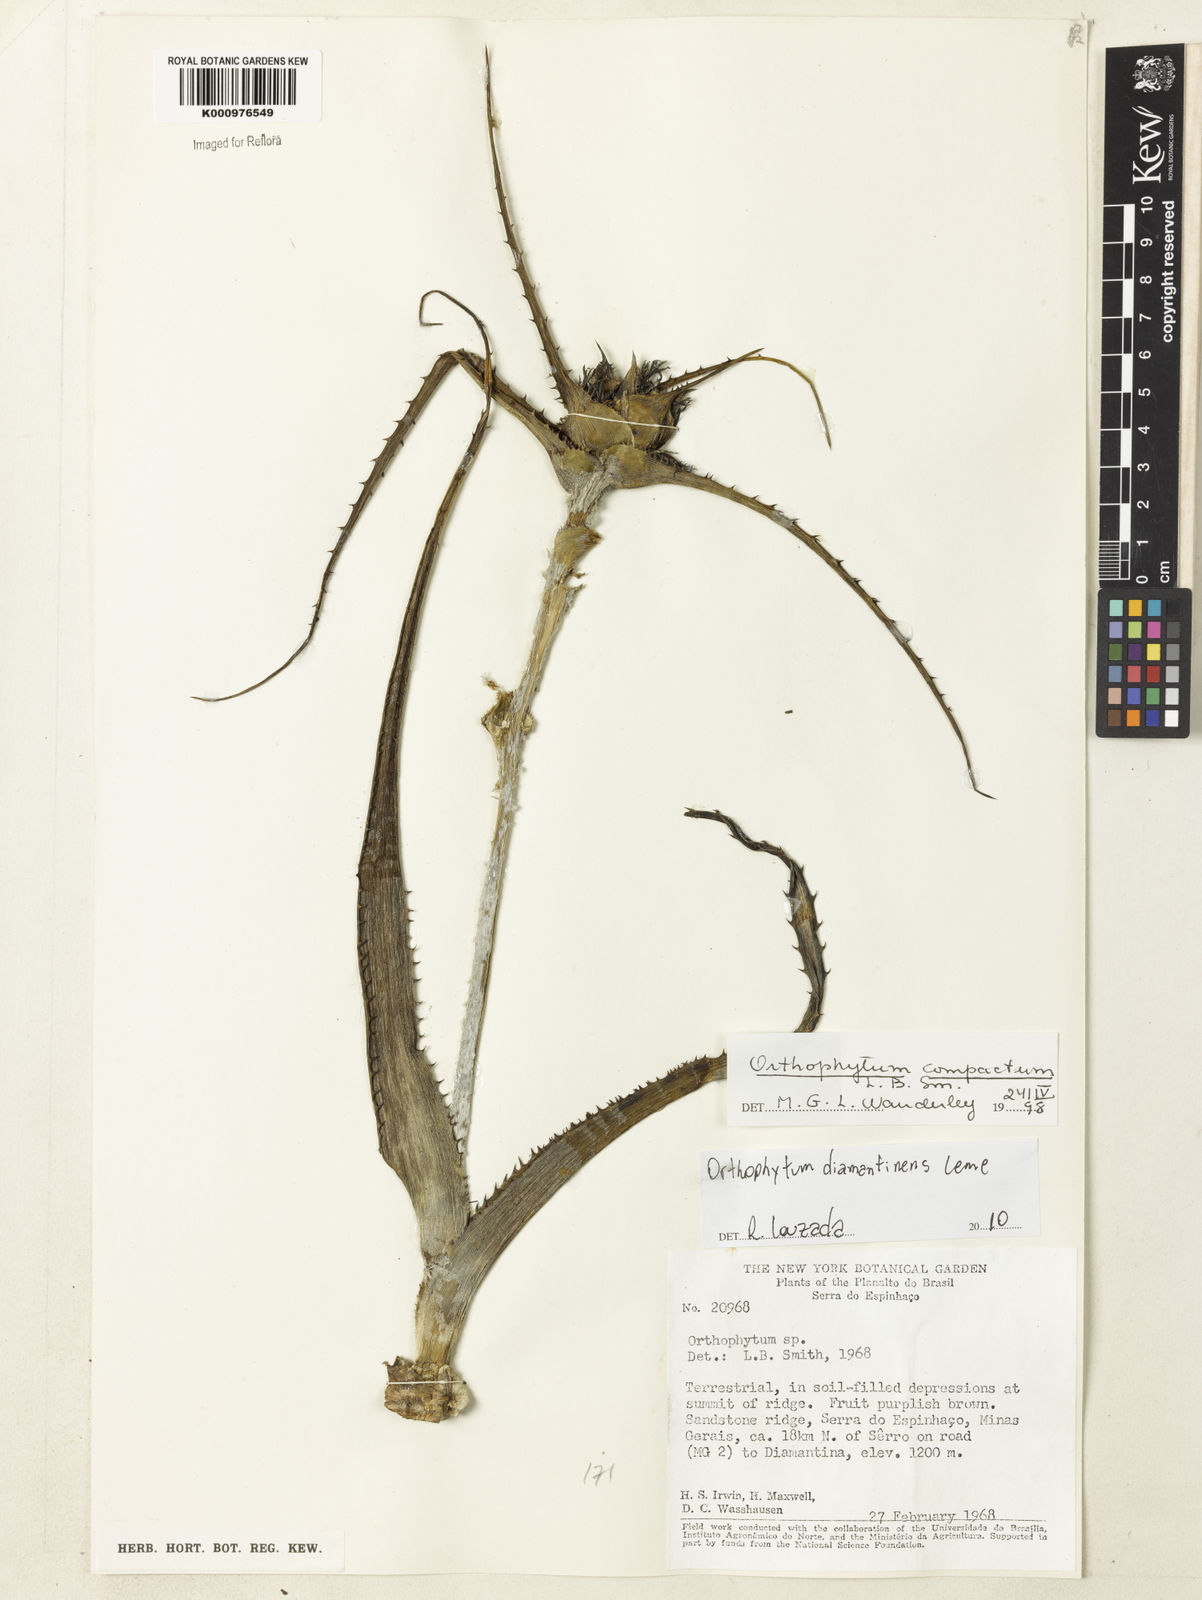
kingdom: Plantae
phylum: Tracheophyta
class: Liliopsida
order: Poales
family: Bromeliaceae
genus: Orthophytum
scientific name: Orthophytum compactum
